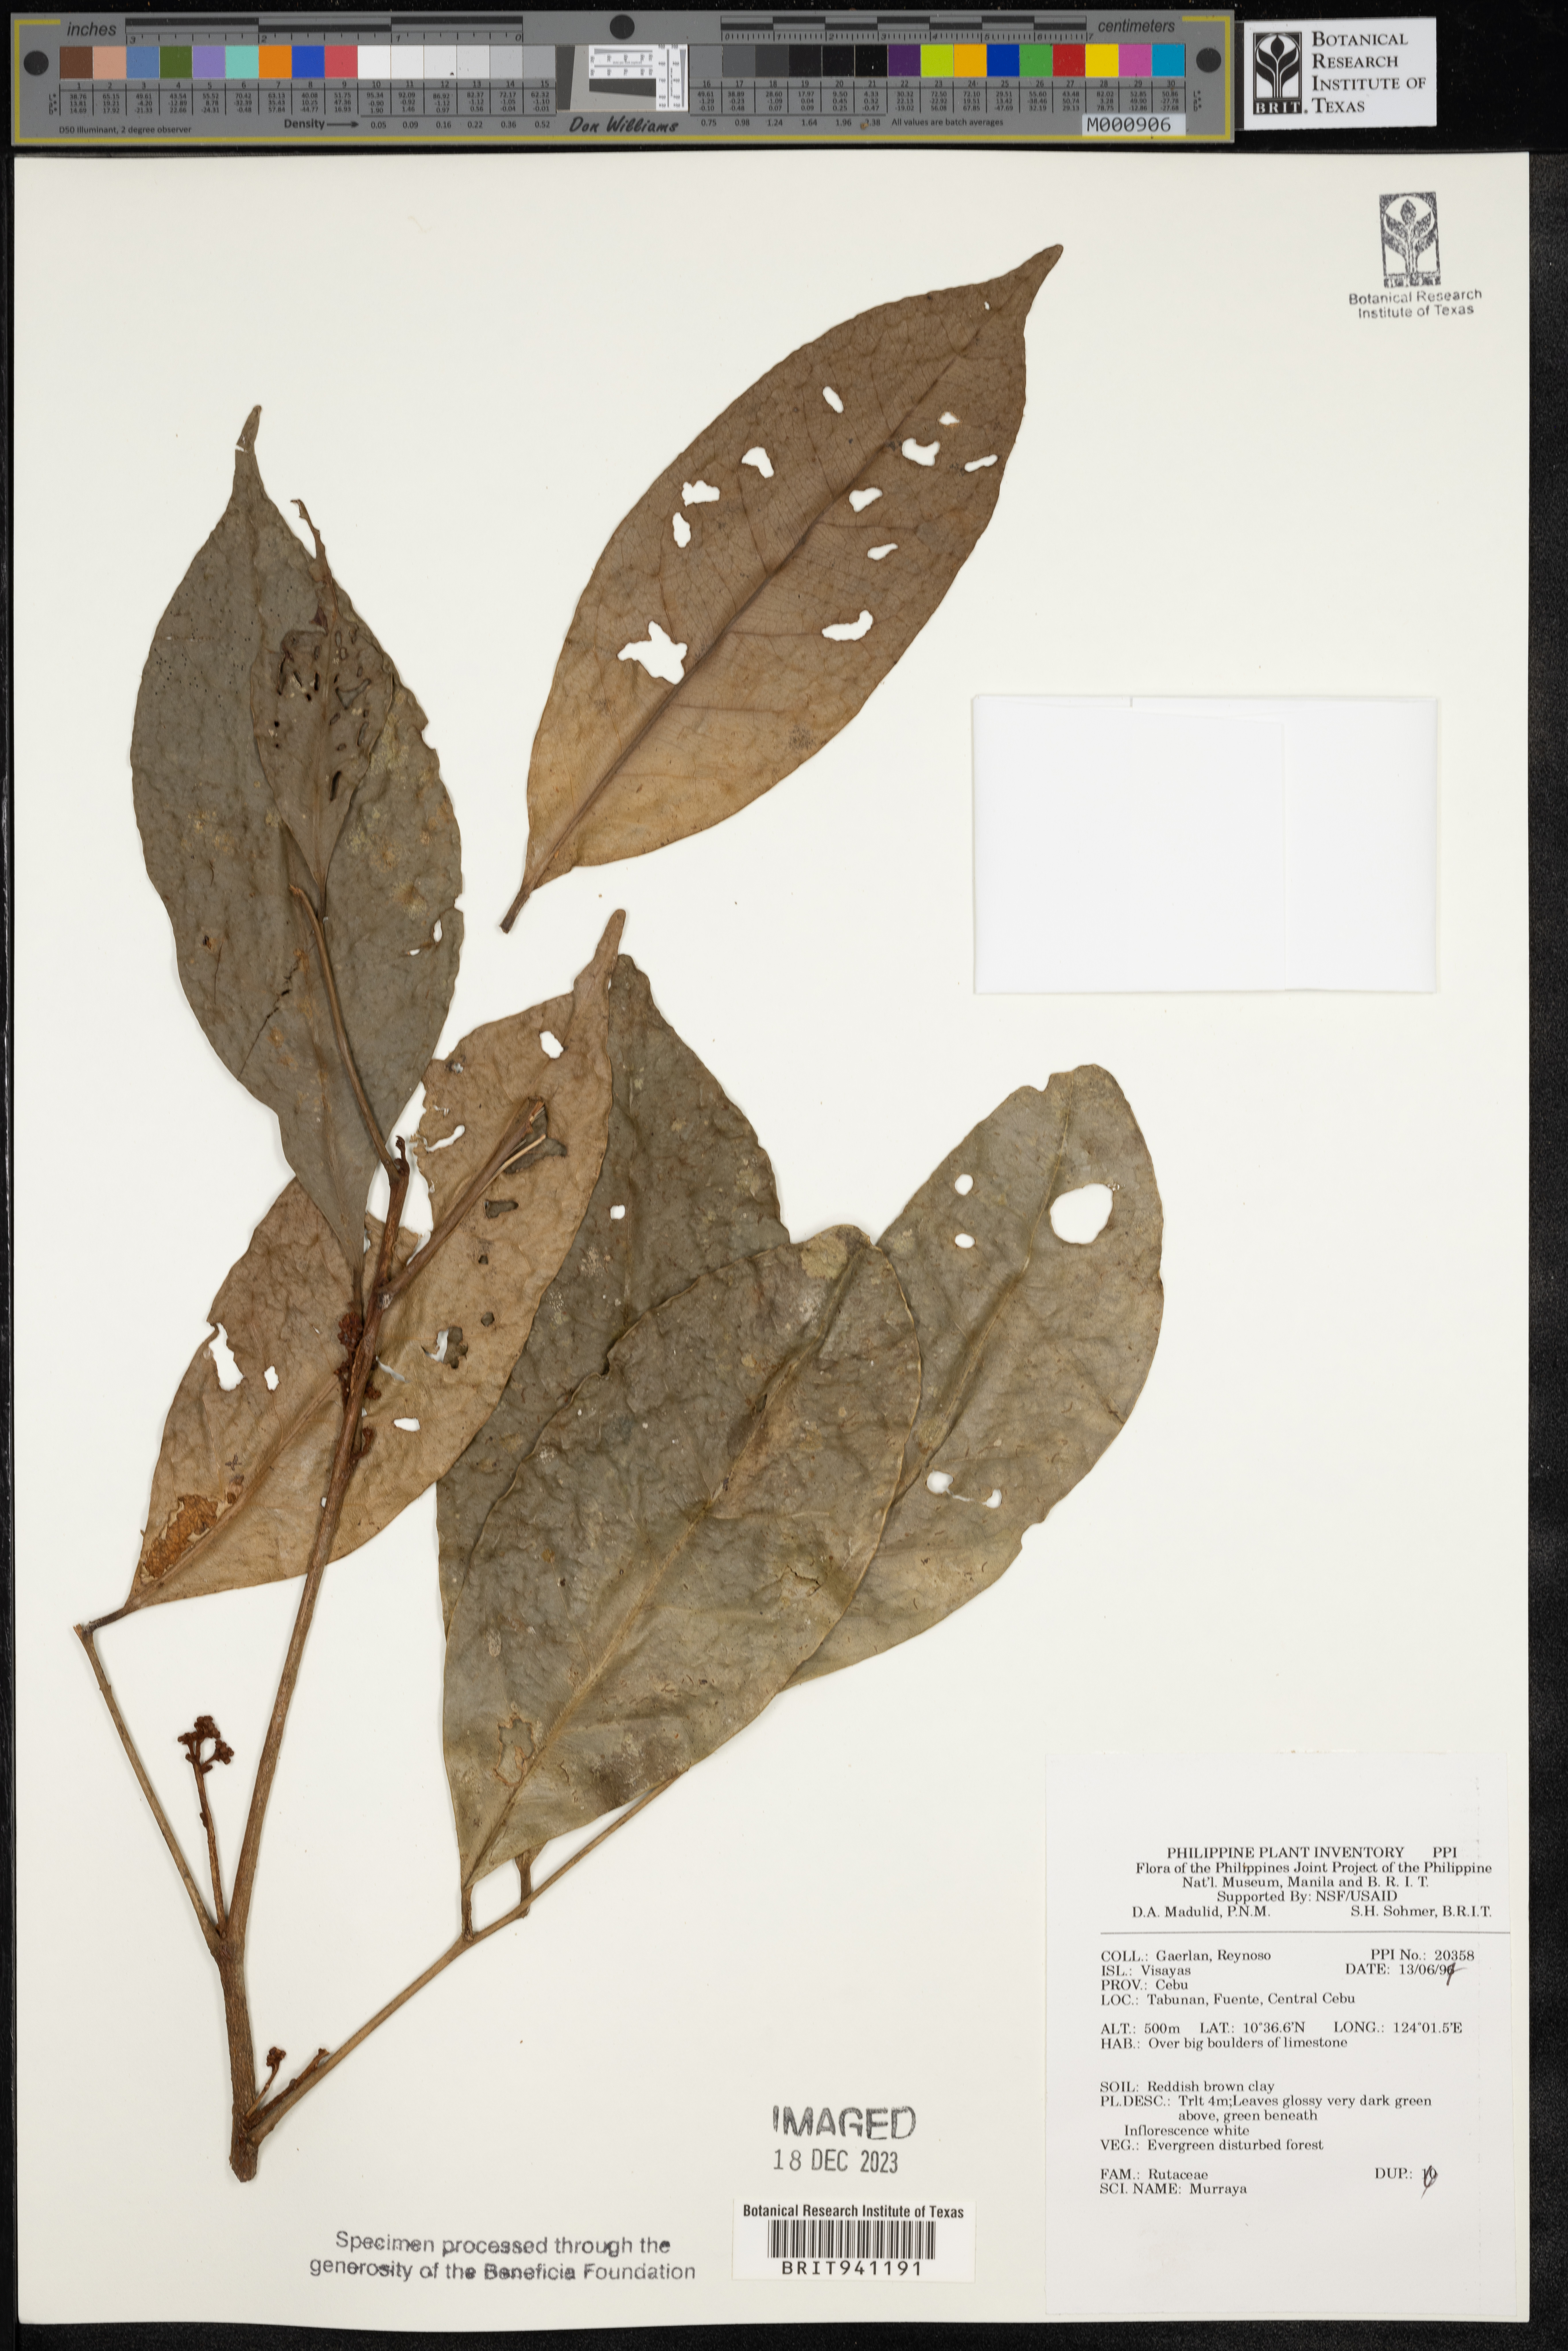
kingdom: Plantae
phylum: Tracheophyta
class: Magnoliopsida
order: Sapindales
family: Rutaceae
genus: Murraya
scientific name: Murraya
